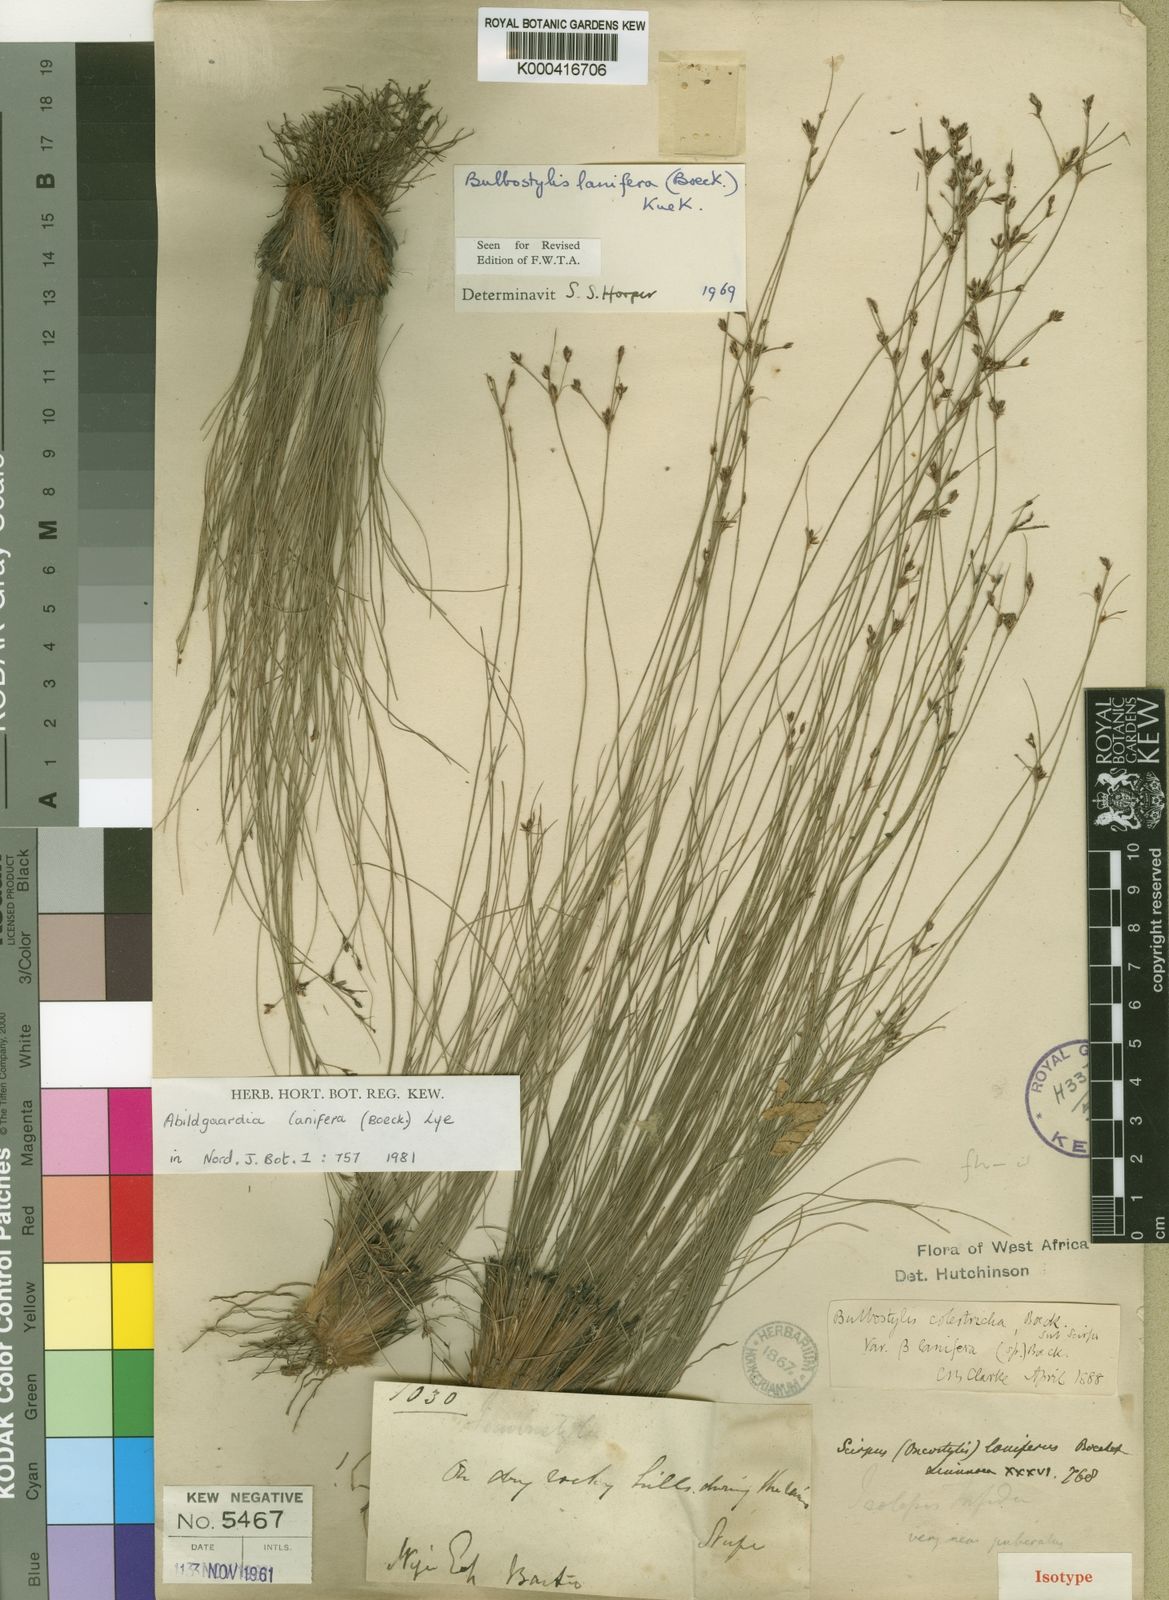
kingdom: Plantae
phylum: Tracheophyta
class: Liliopsida
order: Poales
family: Cyperaceae
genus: Bulbostylis
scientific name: Bulbostylis
